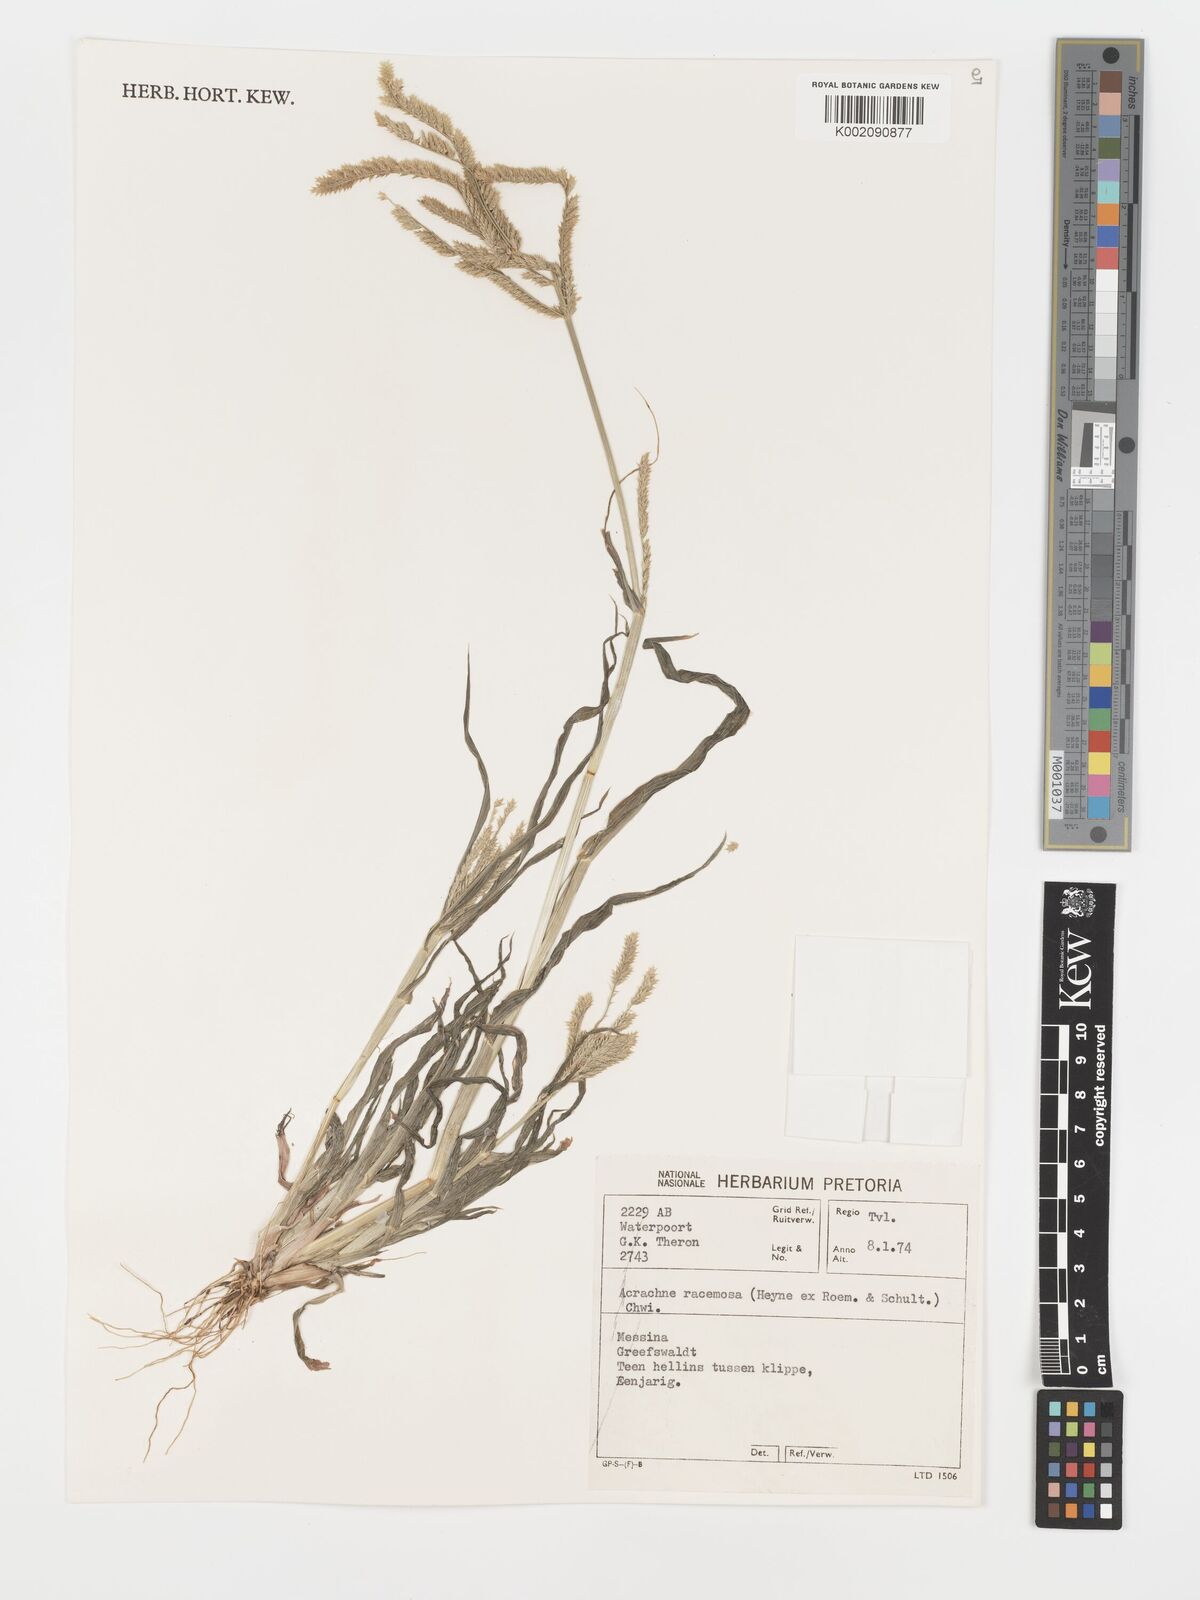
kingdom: Plantae
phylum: Tracheophyta
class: Liliopsida
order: Poales
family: Poaceae
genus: Acrachne
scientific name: Acrachne racemosa
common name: Goosegrass
